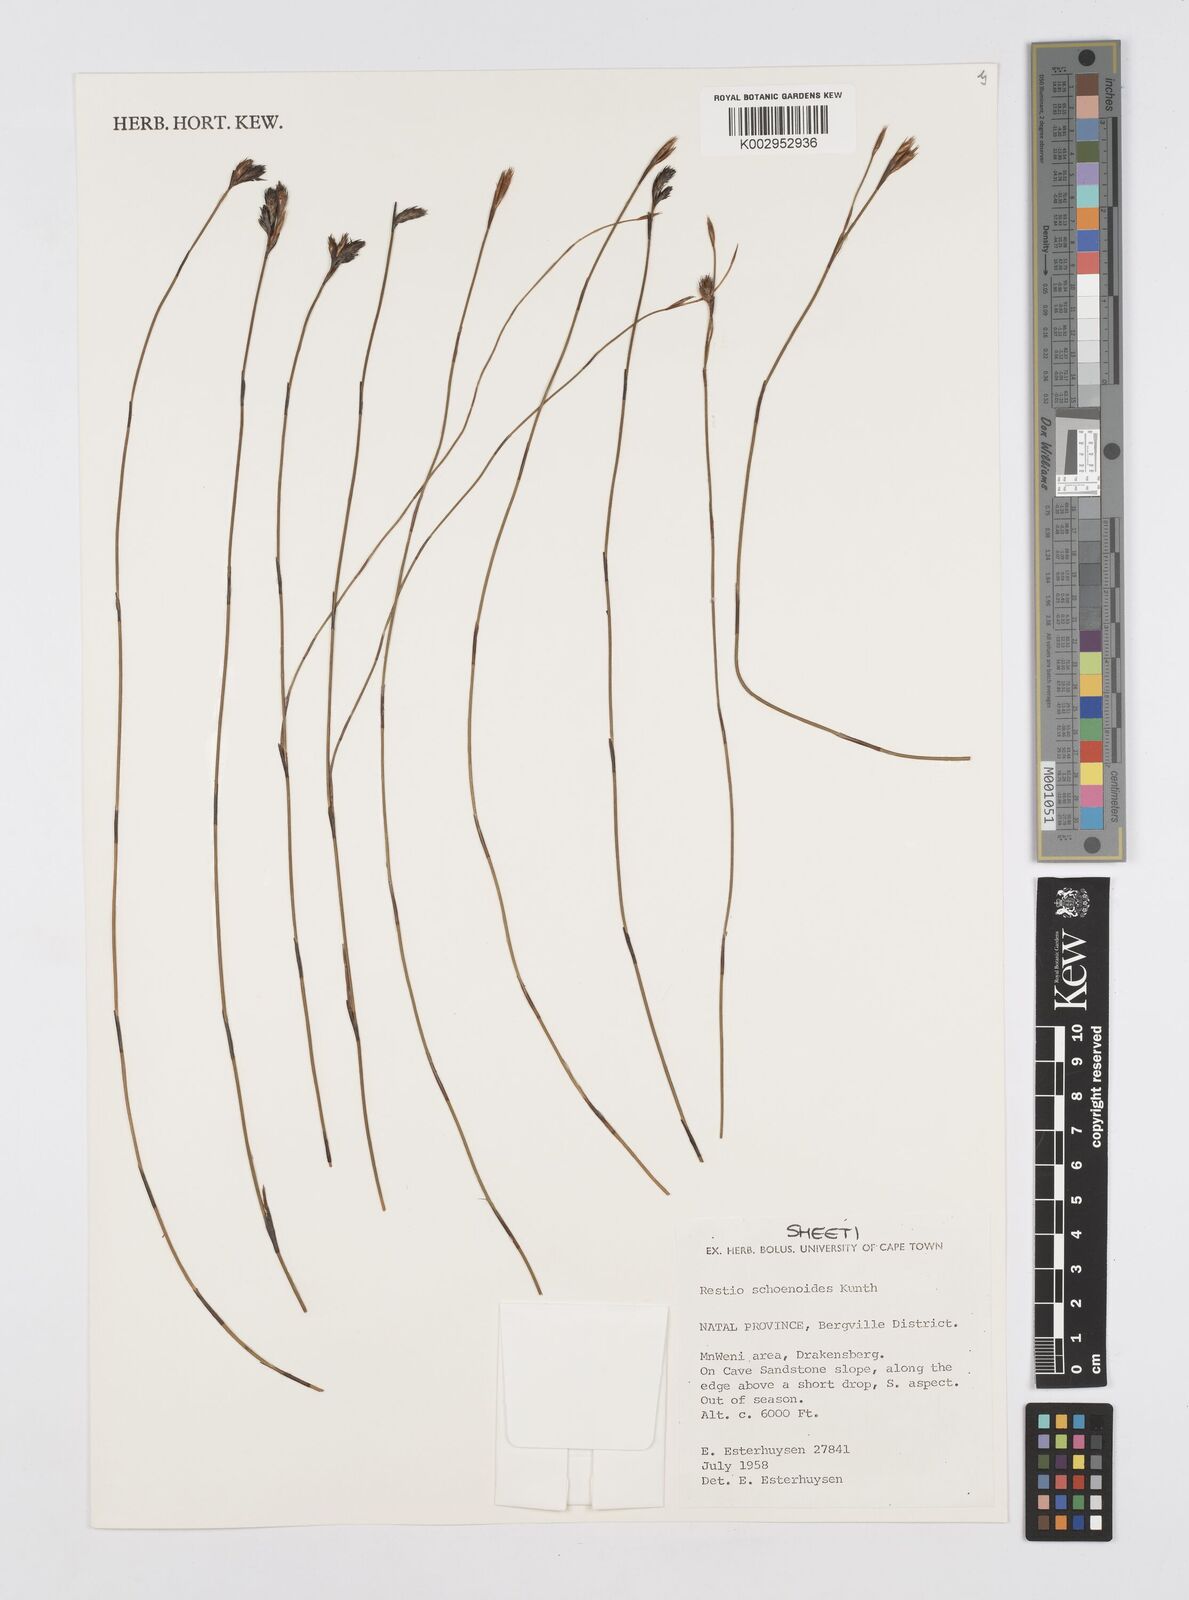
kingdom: Plantae
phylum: Tracheophyta
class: Liliopsida
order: Poales
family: Restionaceae
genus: Restio
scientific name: Restio schoenoides
